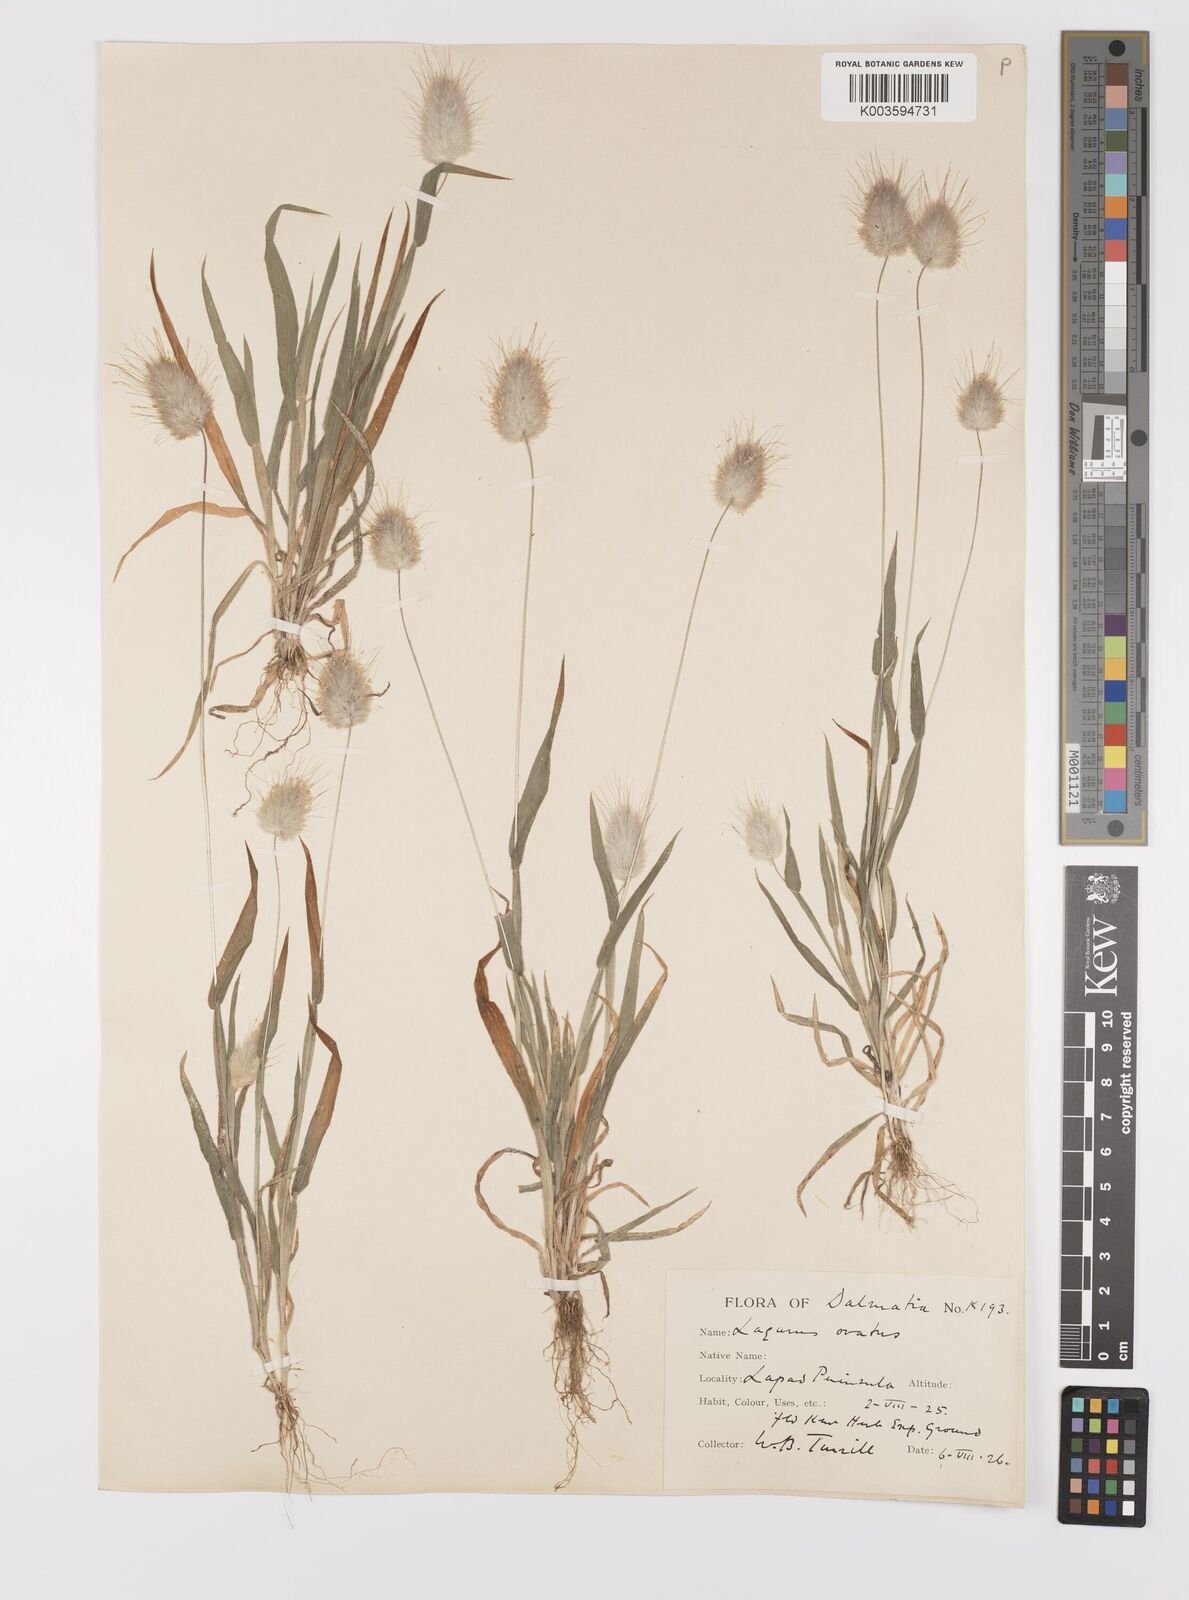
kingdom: Plantae
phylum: Tracheophyta
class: Liliopsida
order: Poales
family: Poaceae
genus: Lagurus
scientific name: Lagurus ovatus
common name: Hare's-tail
